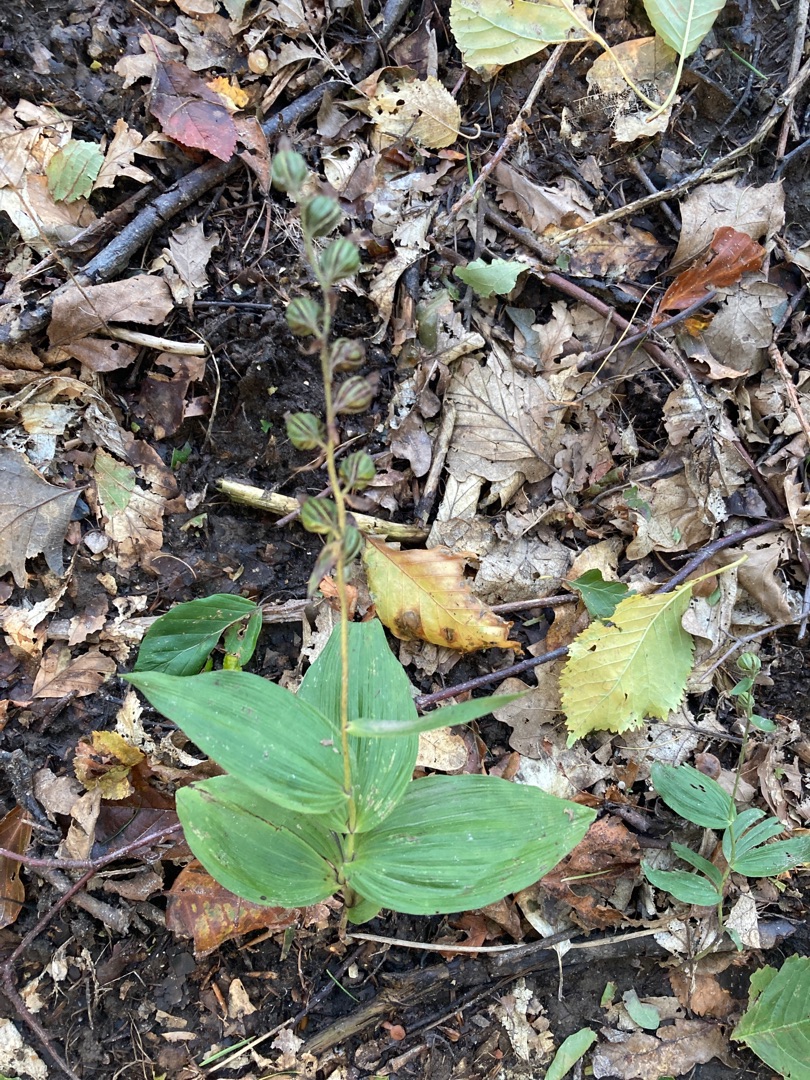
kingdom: Plantae
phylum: Tracheophyta
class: Liliopsida
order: Asparagales
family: Orchidaceae
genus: Epipactis
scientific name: Epipactis helleborine
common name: Skov-hullæbe
